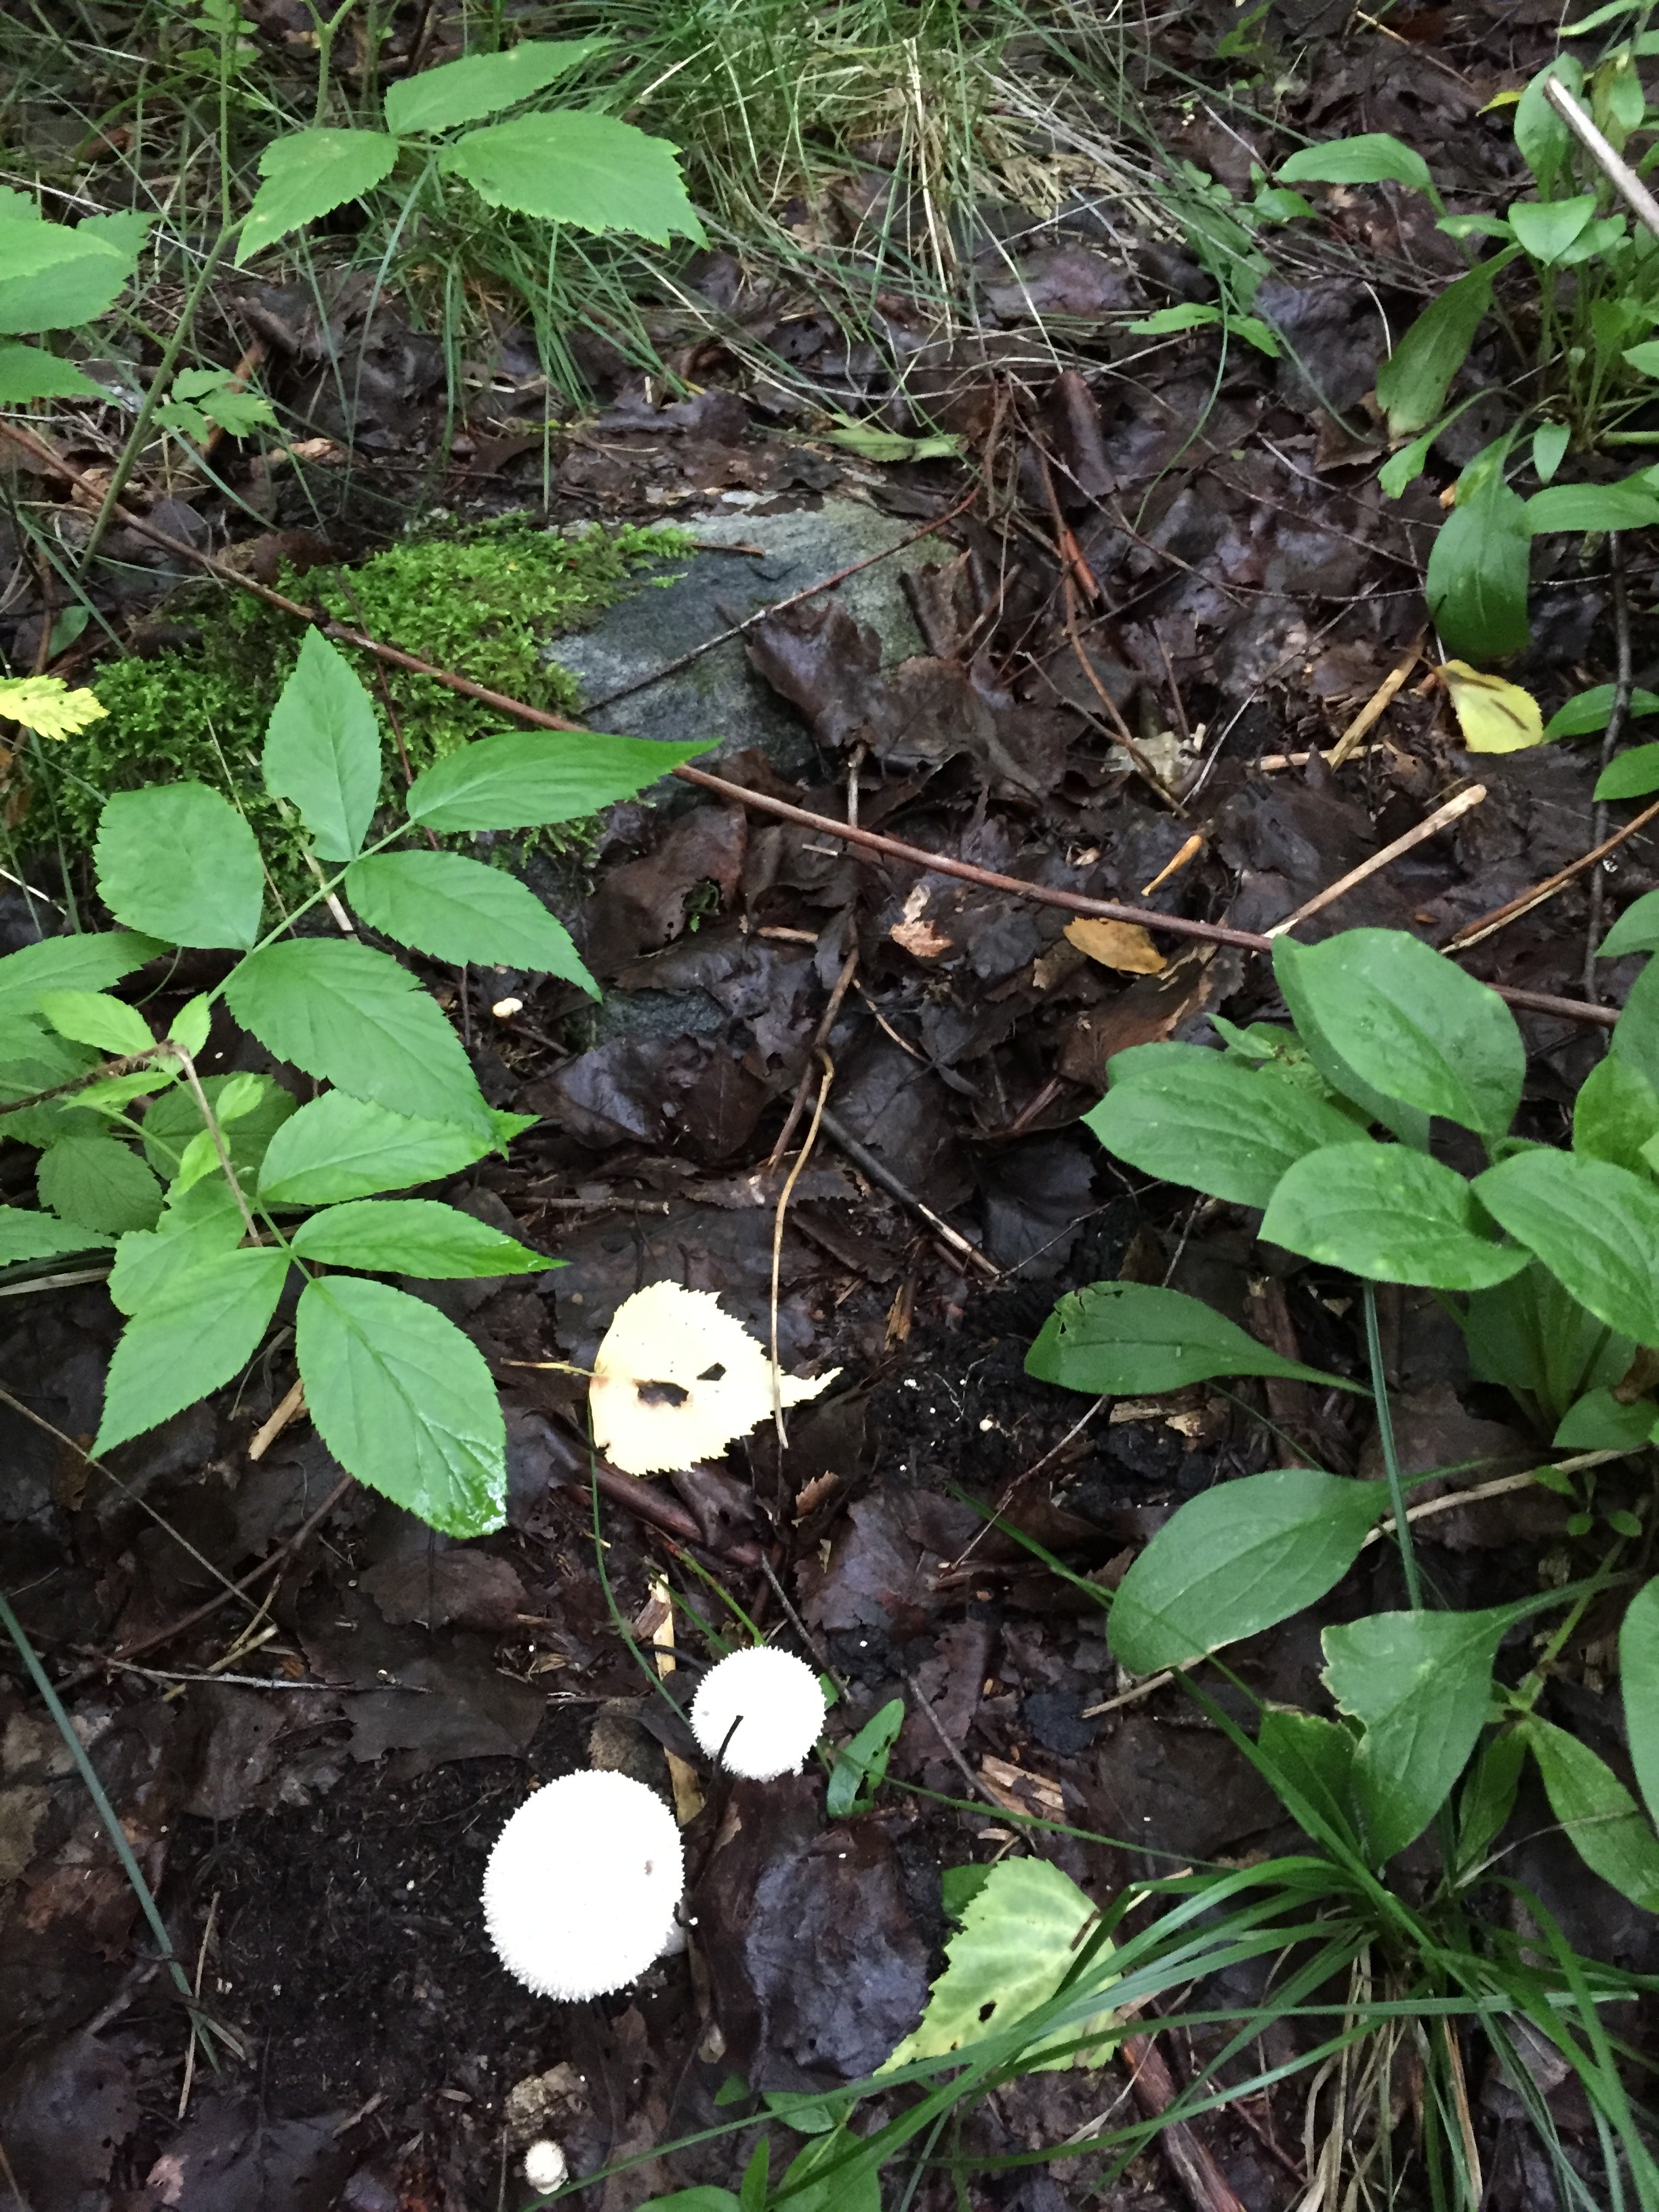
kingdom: Fungi
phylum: Basidiomycota
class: Agaricomycetes
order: Agaricales
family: Lycoperdaceae
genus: Lycoperdon
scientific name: Lycoperdon perlatum
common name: Common puffball
